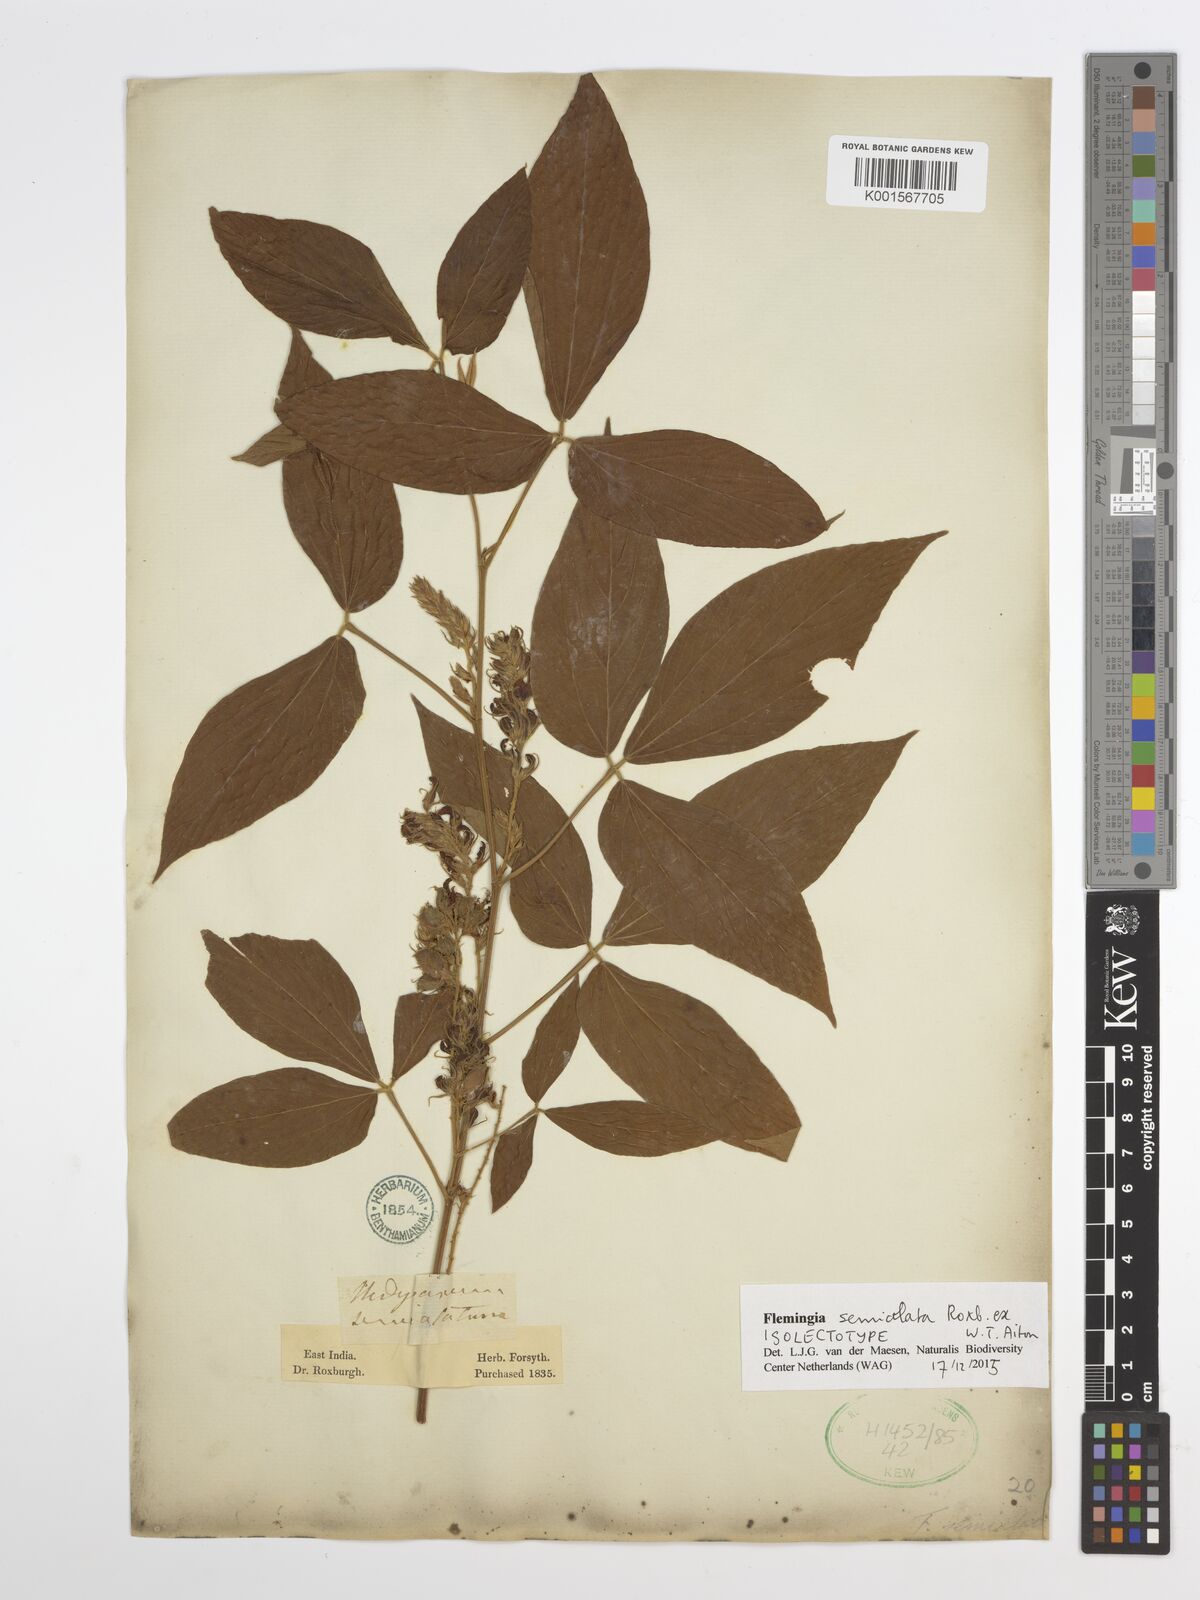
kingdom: Plantae
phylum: Tracheophyta
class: Magnoliopsida
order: Fabales
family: Fabaceae
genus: Flemingia
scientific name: Flemingia bracteata
